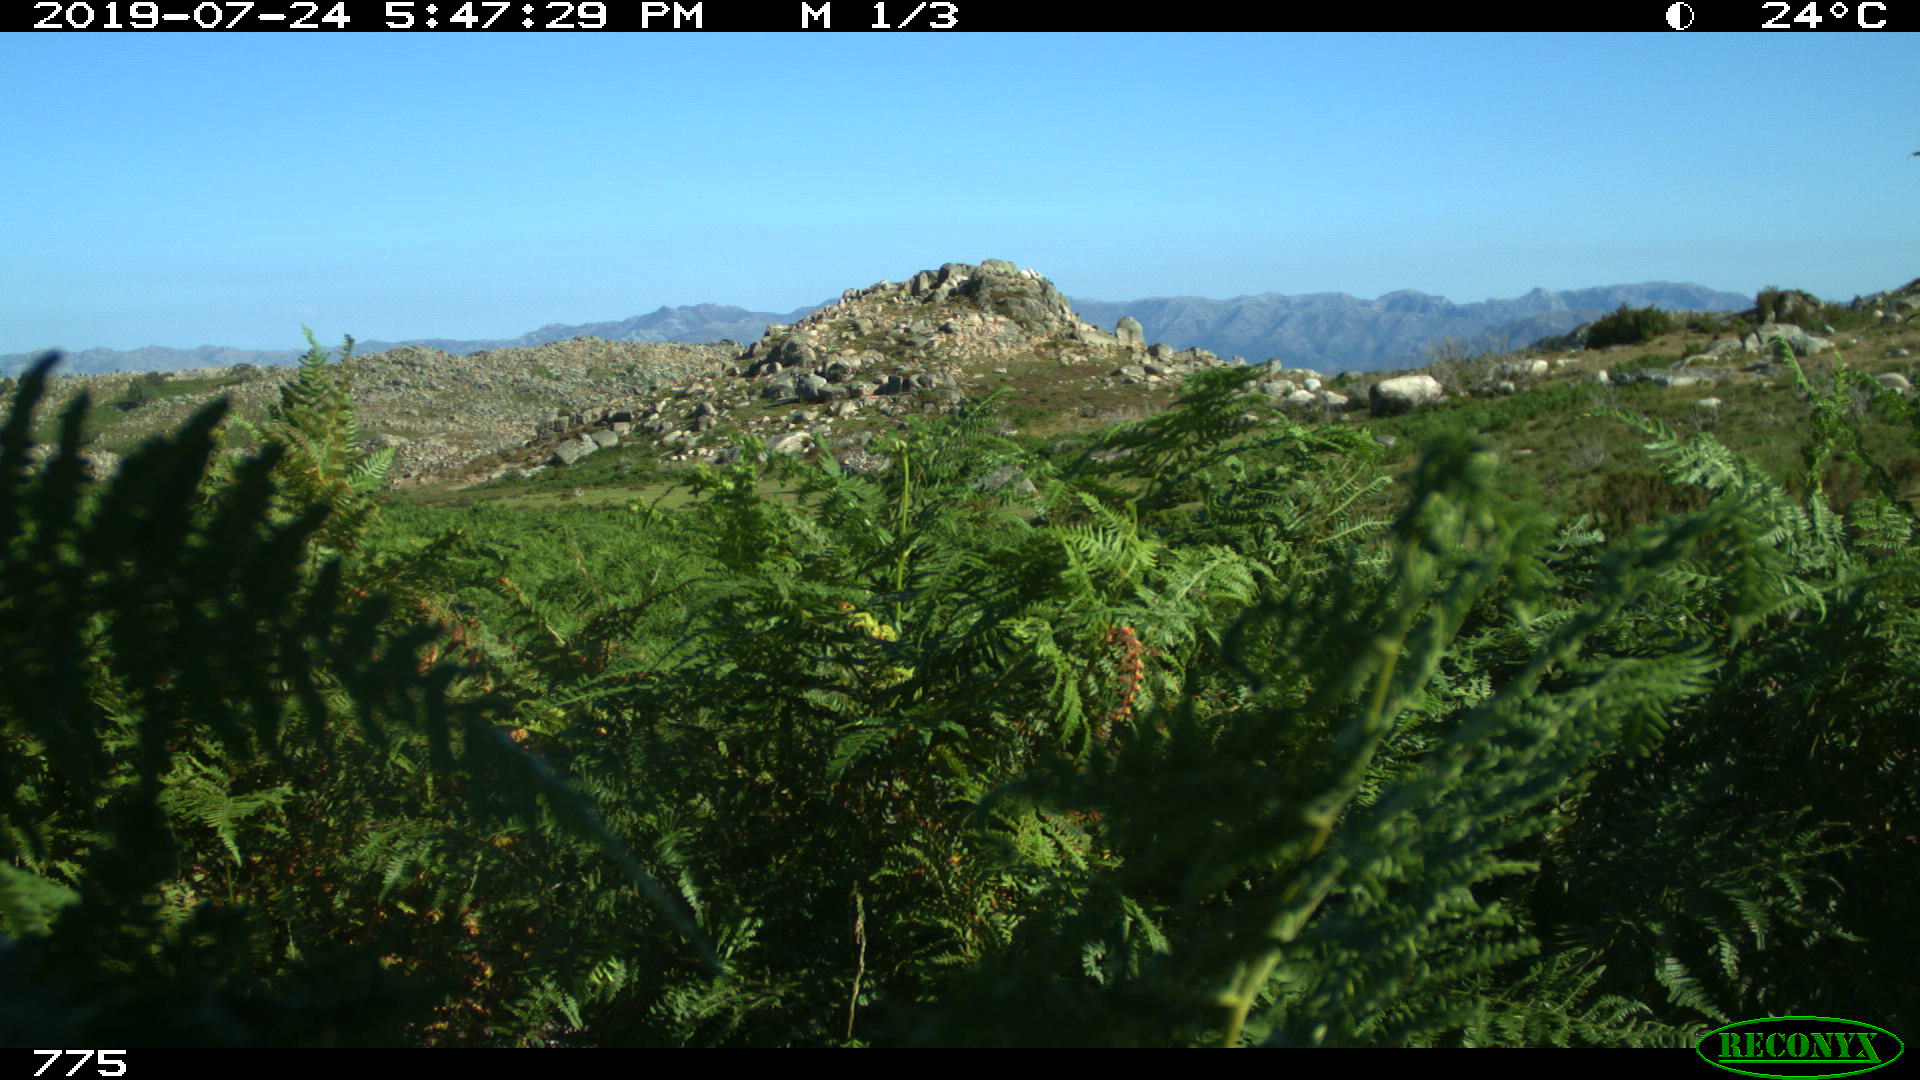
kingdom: Animalia
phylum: Chordata
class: Mammalia
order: Artiodactyla
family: Bovidae
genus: Bos
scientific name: Bos taurus
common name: Domesticated cattle
